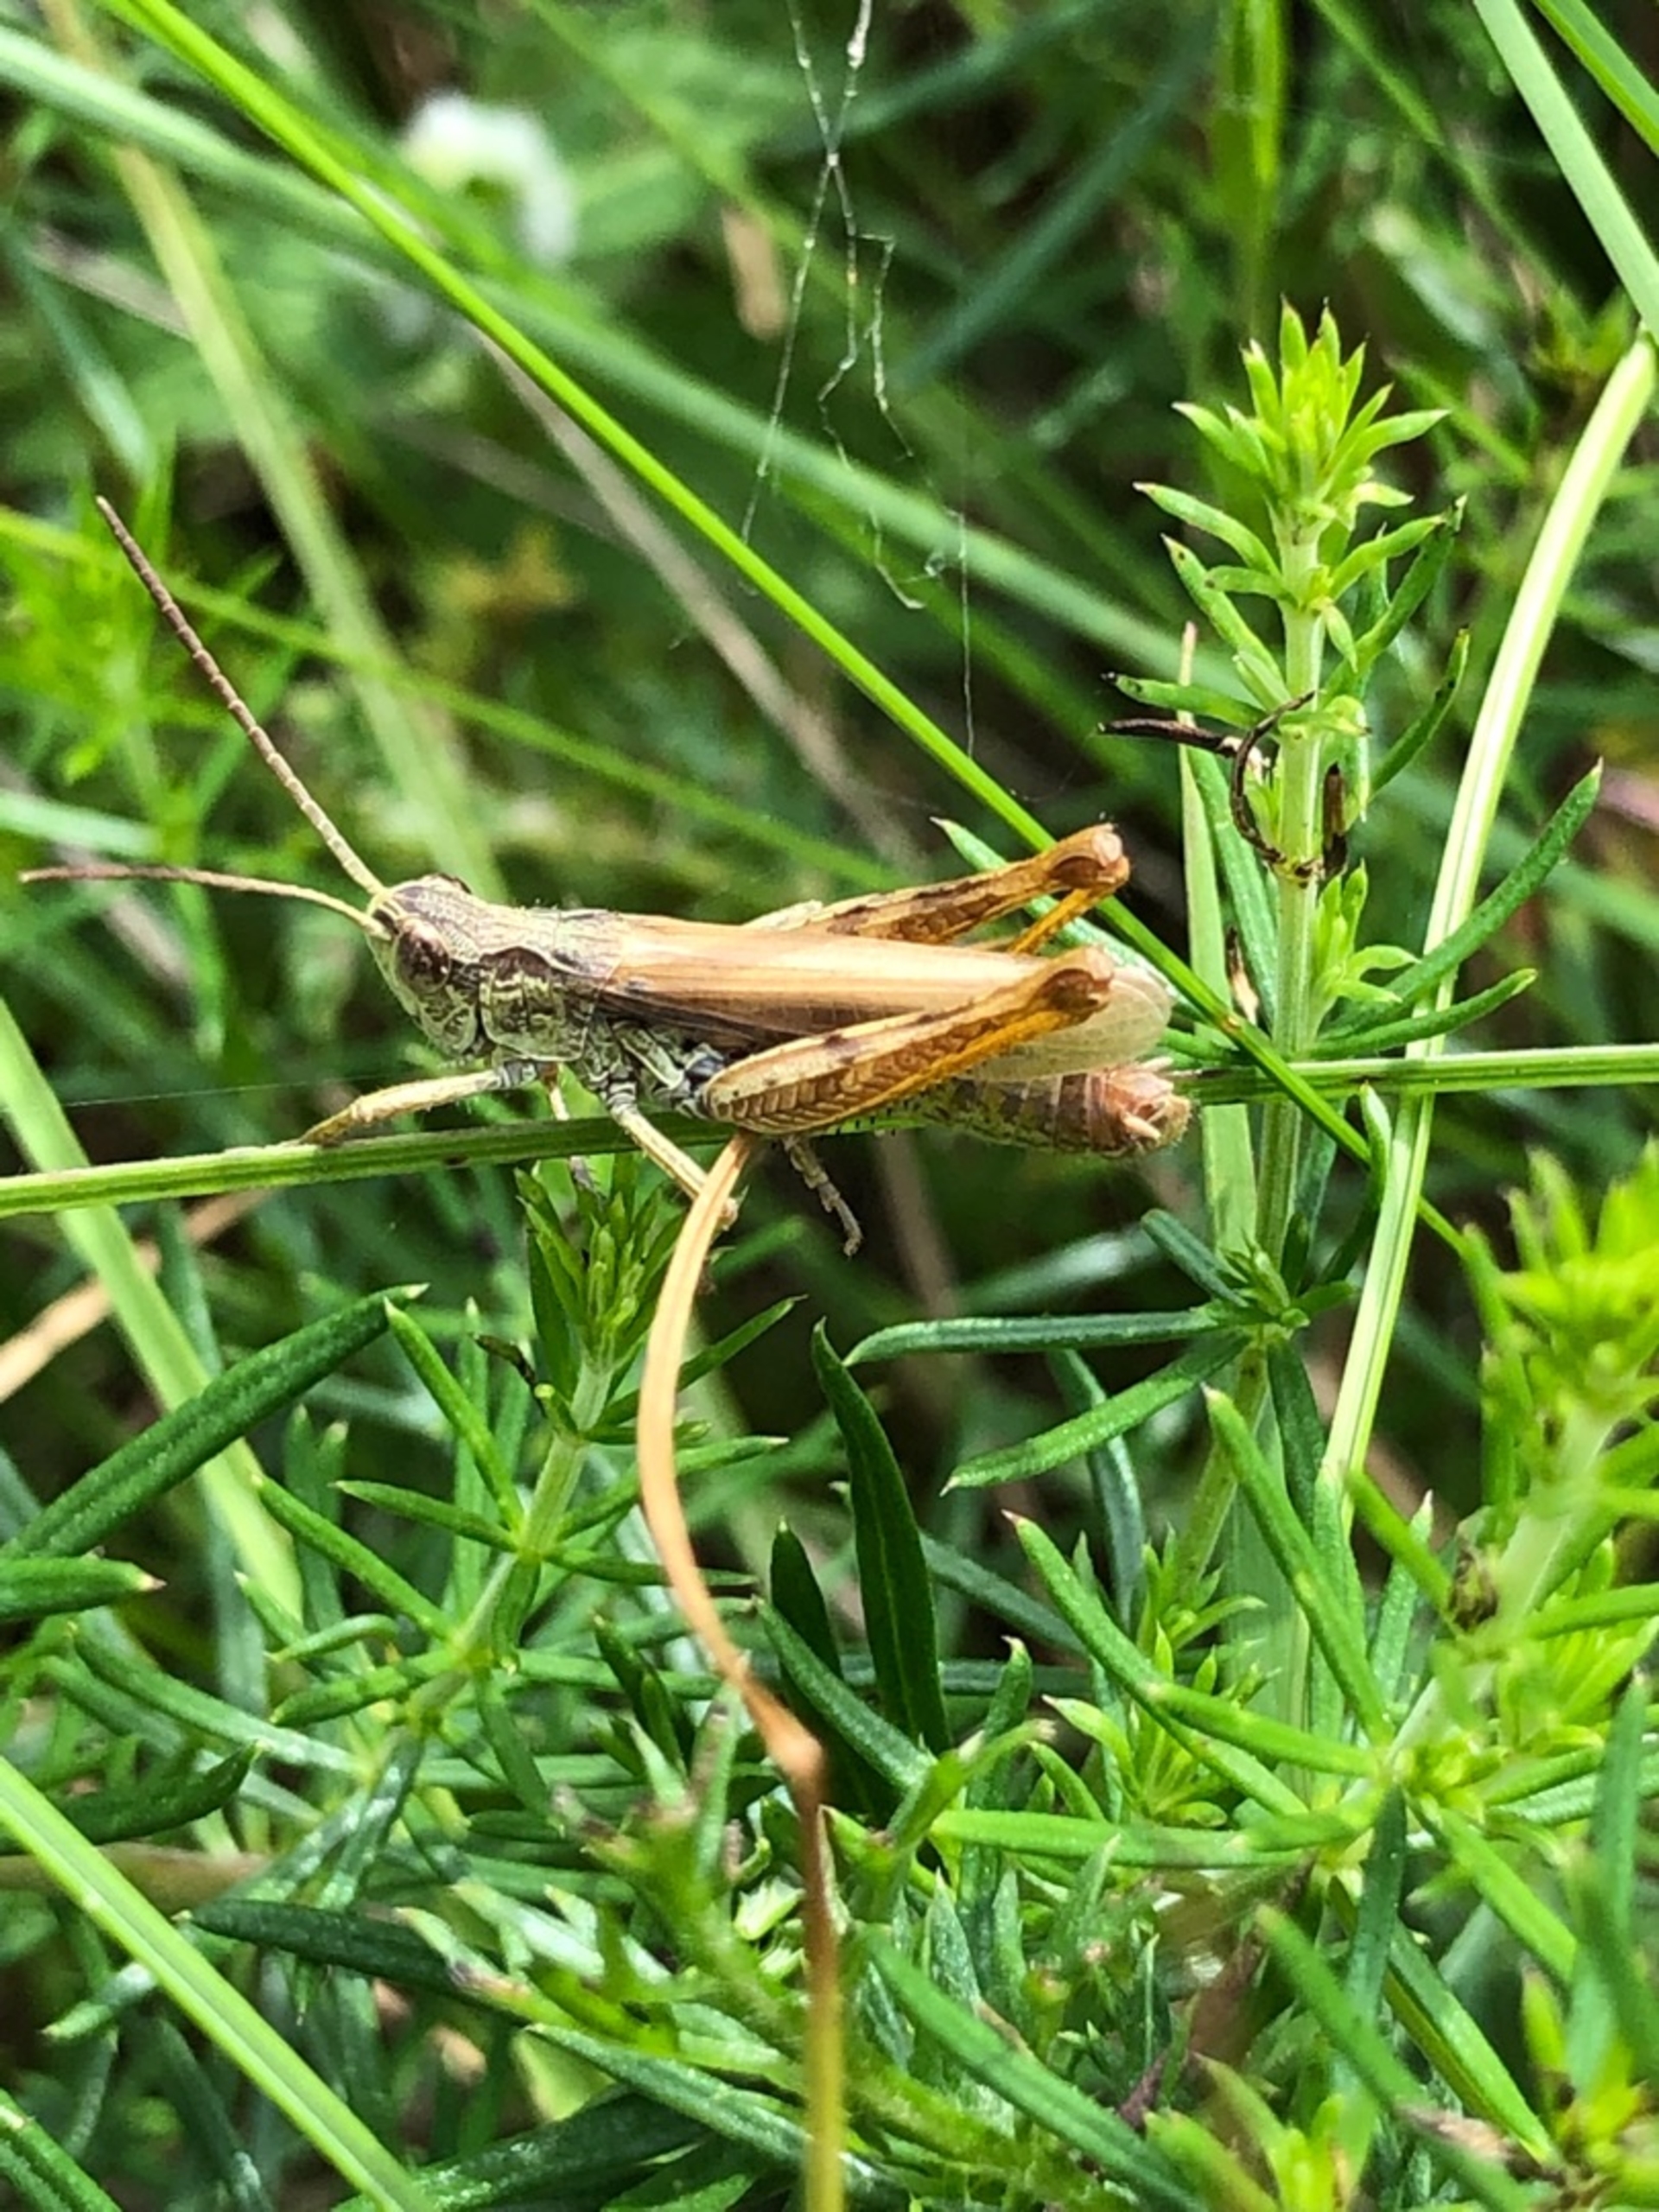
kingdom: Animalia
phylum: Arthropoda
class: Insecta
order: Orthoptera
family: Acrididae
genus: Chorthippus
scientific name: Chorthippus apricarius
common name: Solgræshoppe
